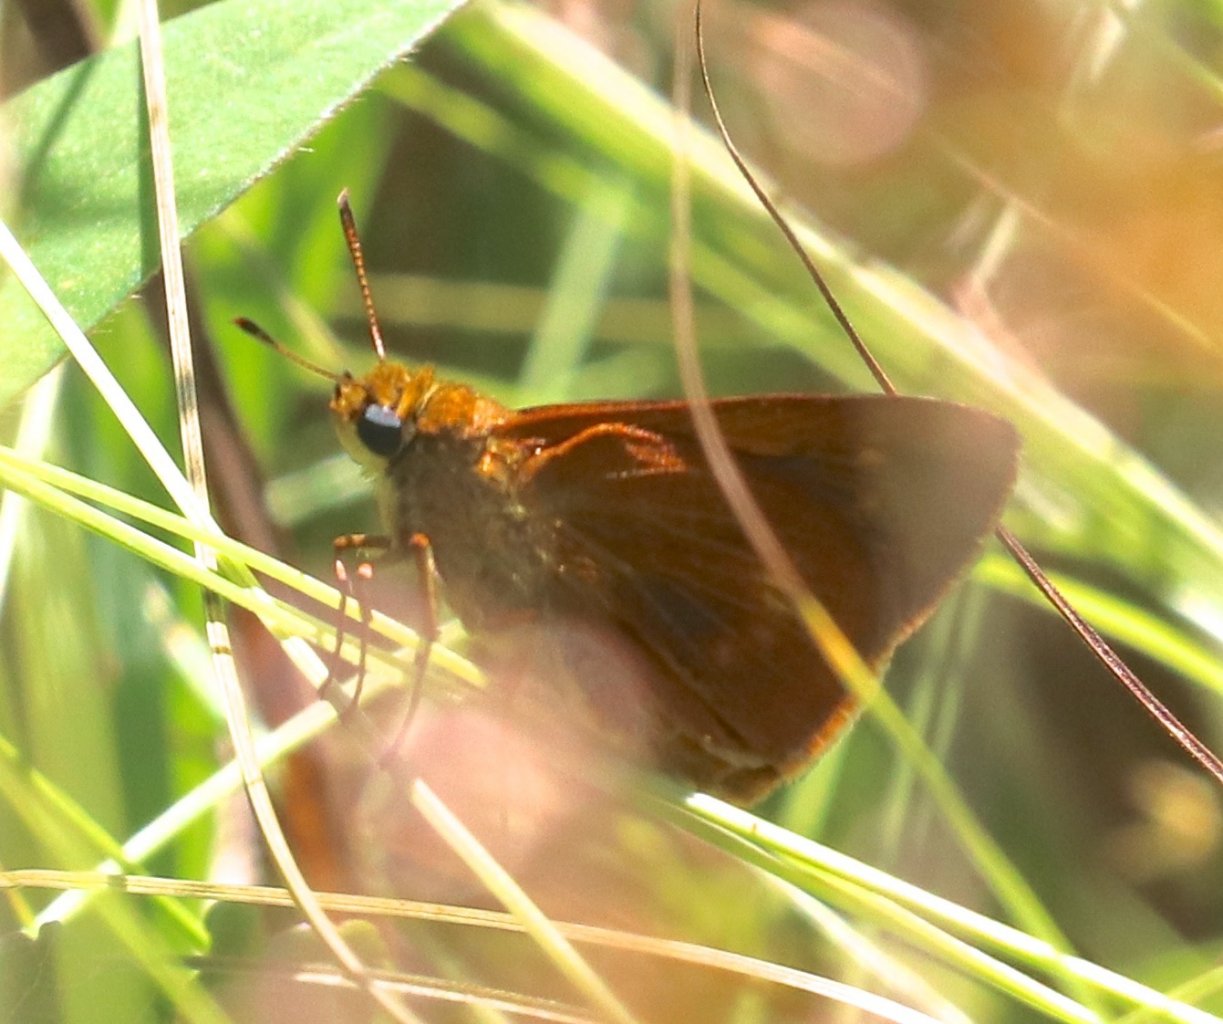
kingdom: Animalia
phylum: Arthropoda
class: Insecta
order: Lepidoptera
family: Hesperiidae
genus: Euphyes
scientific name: Euphyes conspicua
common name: Black Dash
